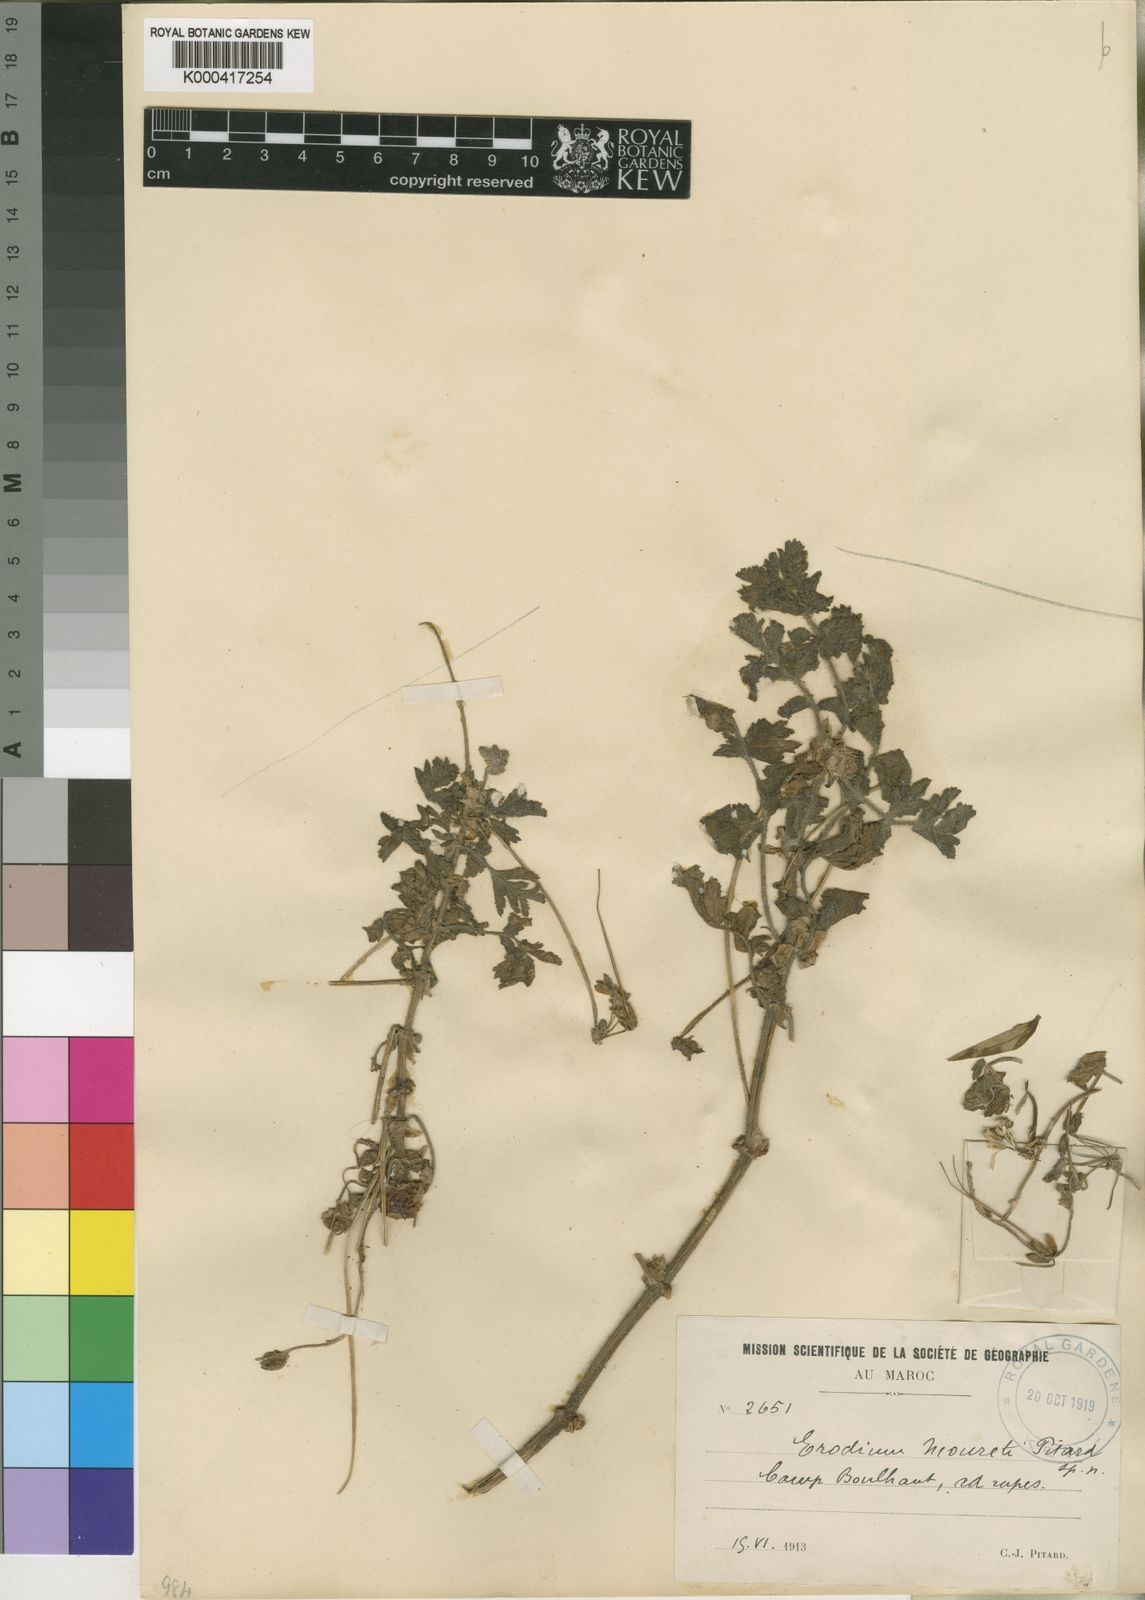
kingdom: Plantae
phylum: Tracheophyta
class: Magnoliopsida
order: Geraniales
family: Geraniaceae
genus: Erodium
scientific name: Erodium mouretii
